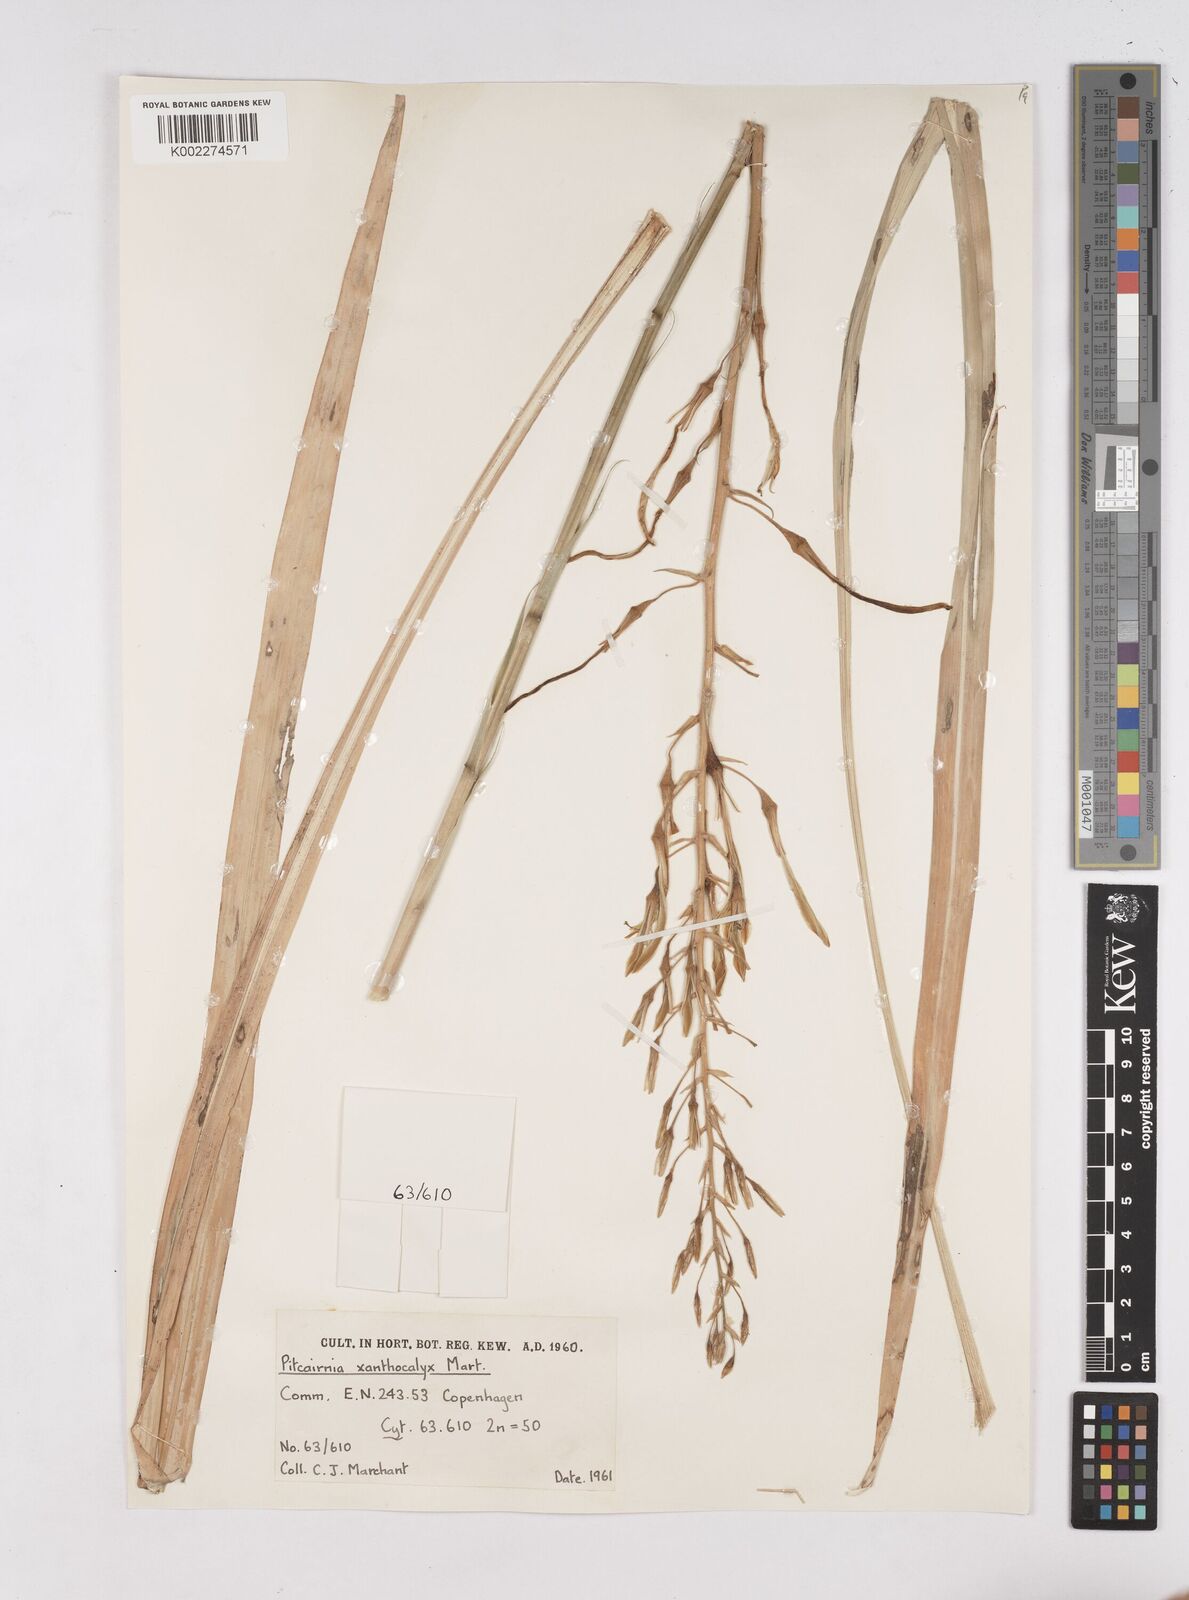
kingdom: Plantae
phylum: Tracheophyta
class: Liliopsida
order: Poales
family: Bromeliaceae
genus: Pitcairnia
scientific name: Pitcairnia xanthocalyx
